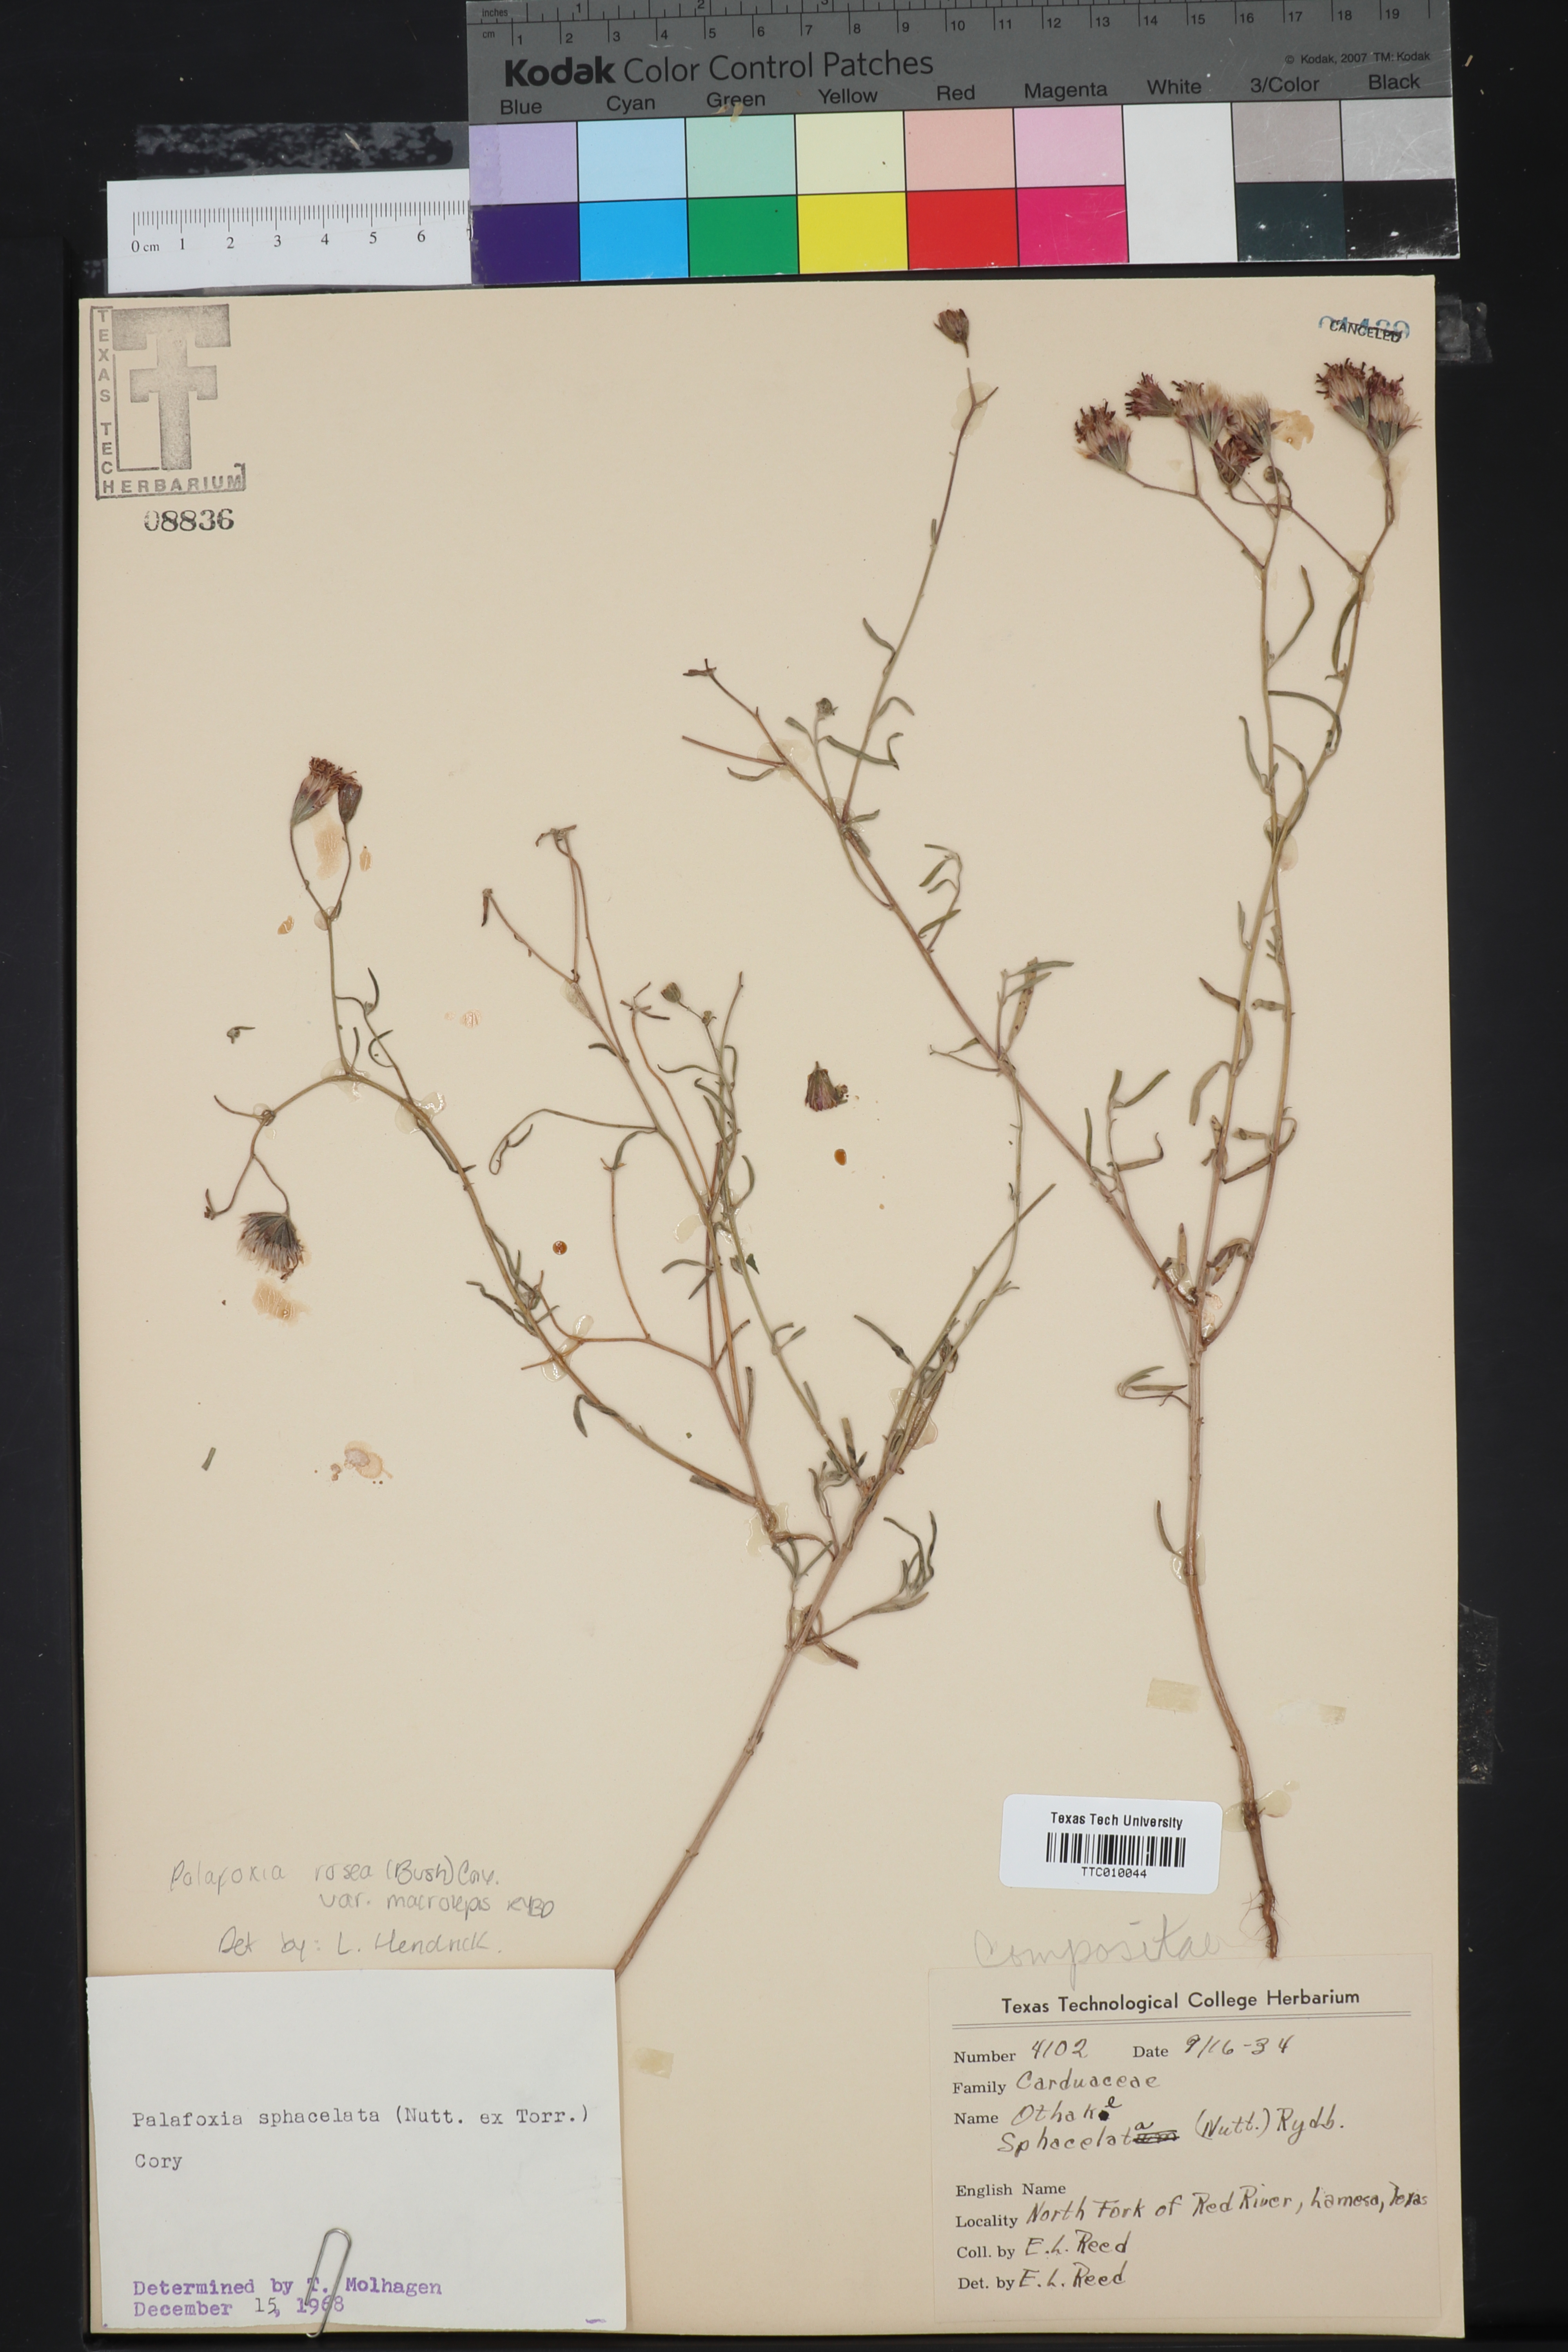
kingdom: Plantae
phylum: Tracheophyta
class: Magnoliopsida
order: Asterales
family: Asteraceae
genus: Palafoxia
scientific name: Palafoxia rosea
